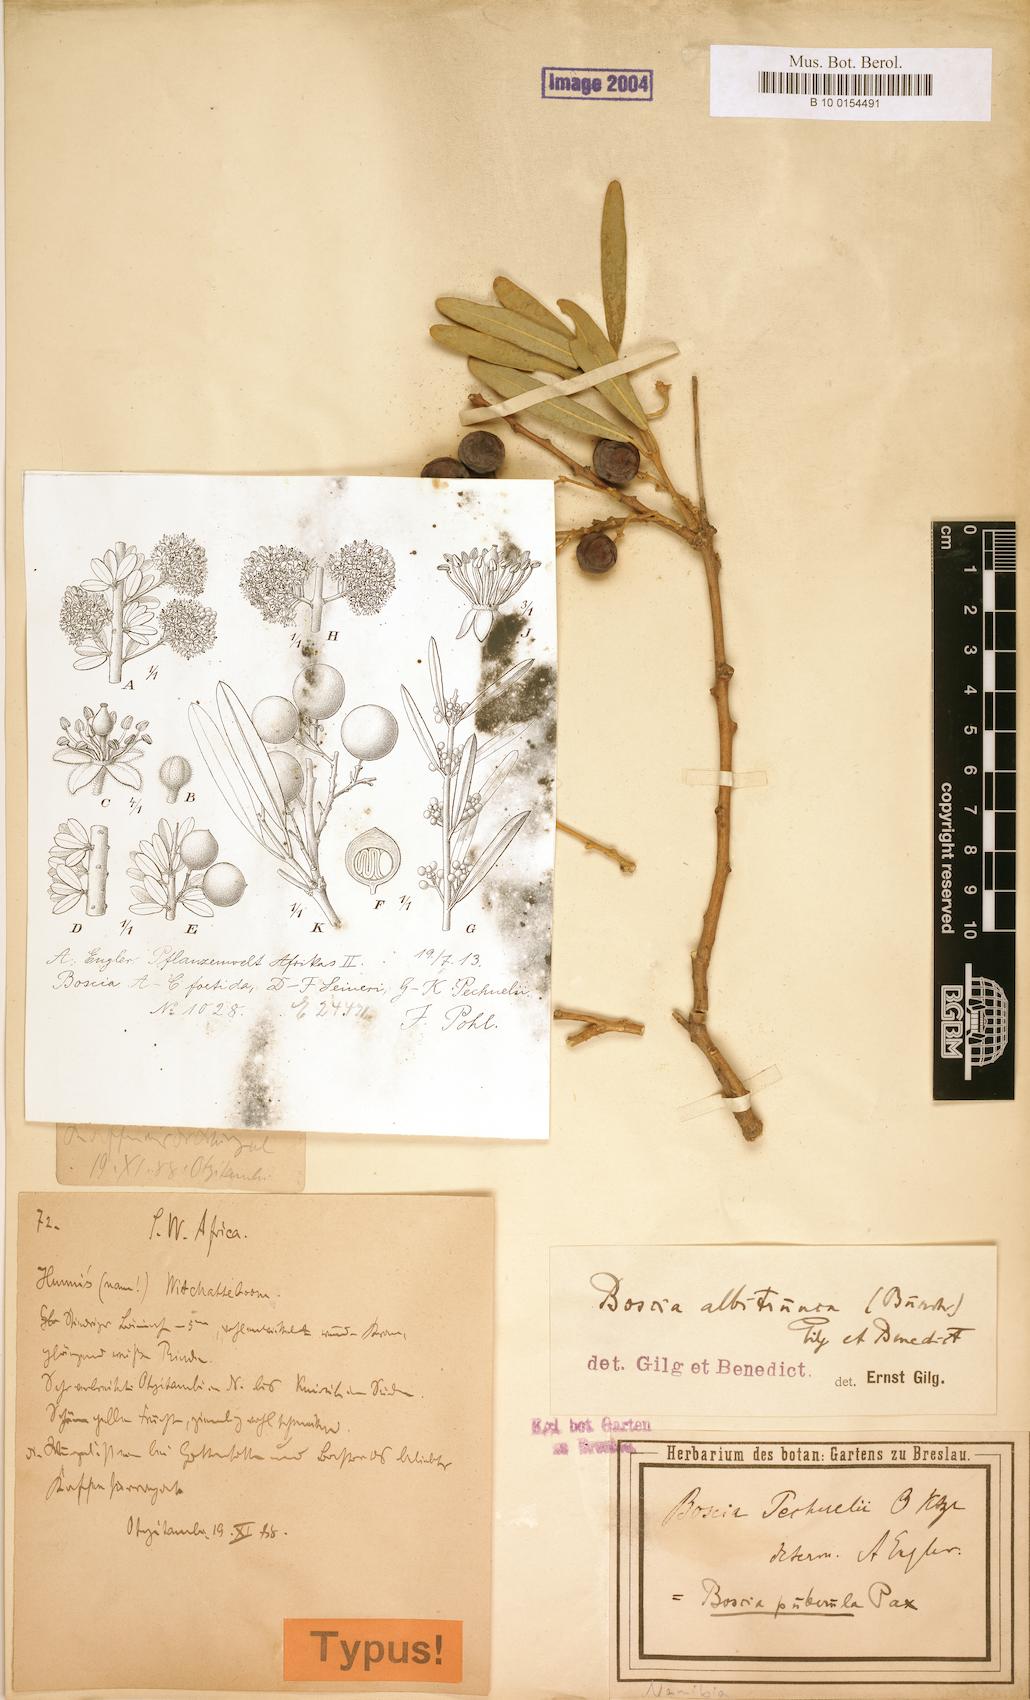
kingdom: Plantae
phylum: Tracheophyta
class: Magnoliopsida
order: Brassicales
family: Capparaceae
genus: Boscia
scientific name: Boscia albitrunca
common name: Caper bush
